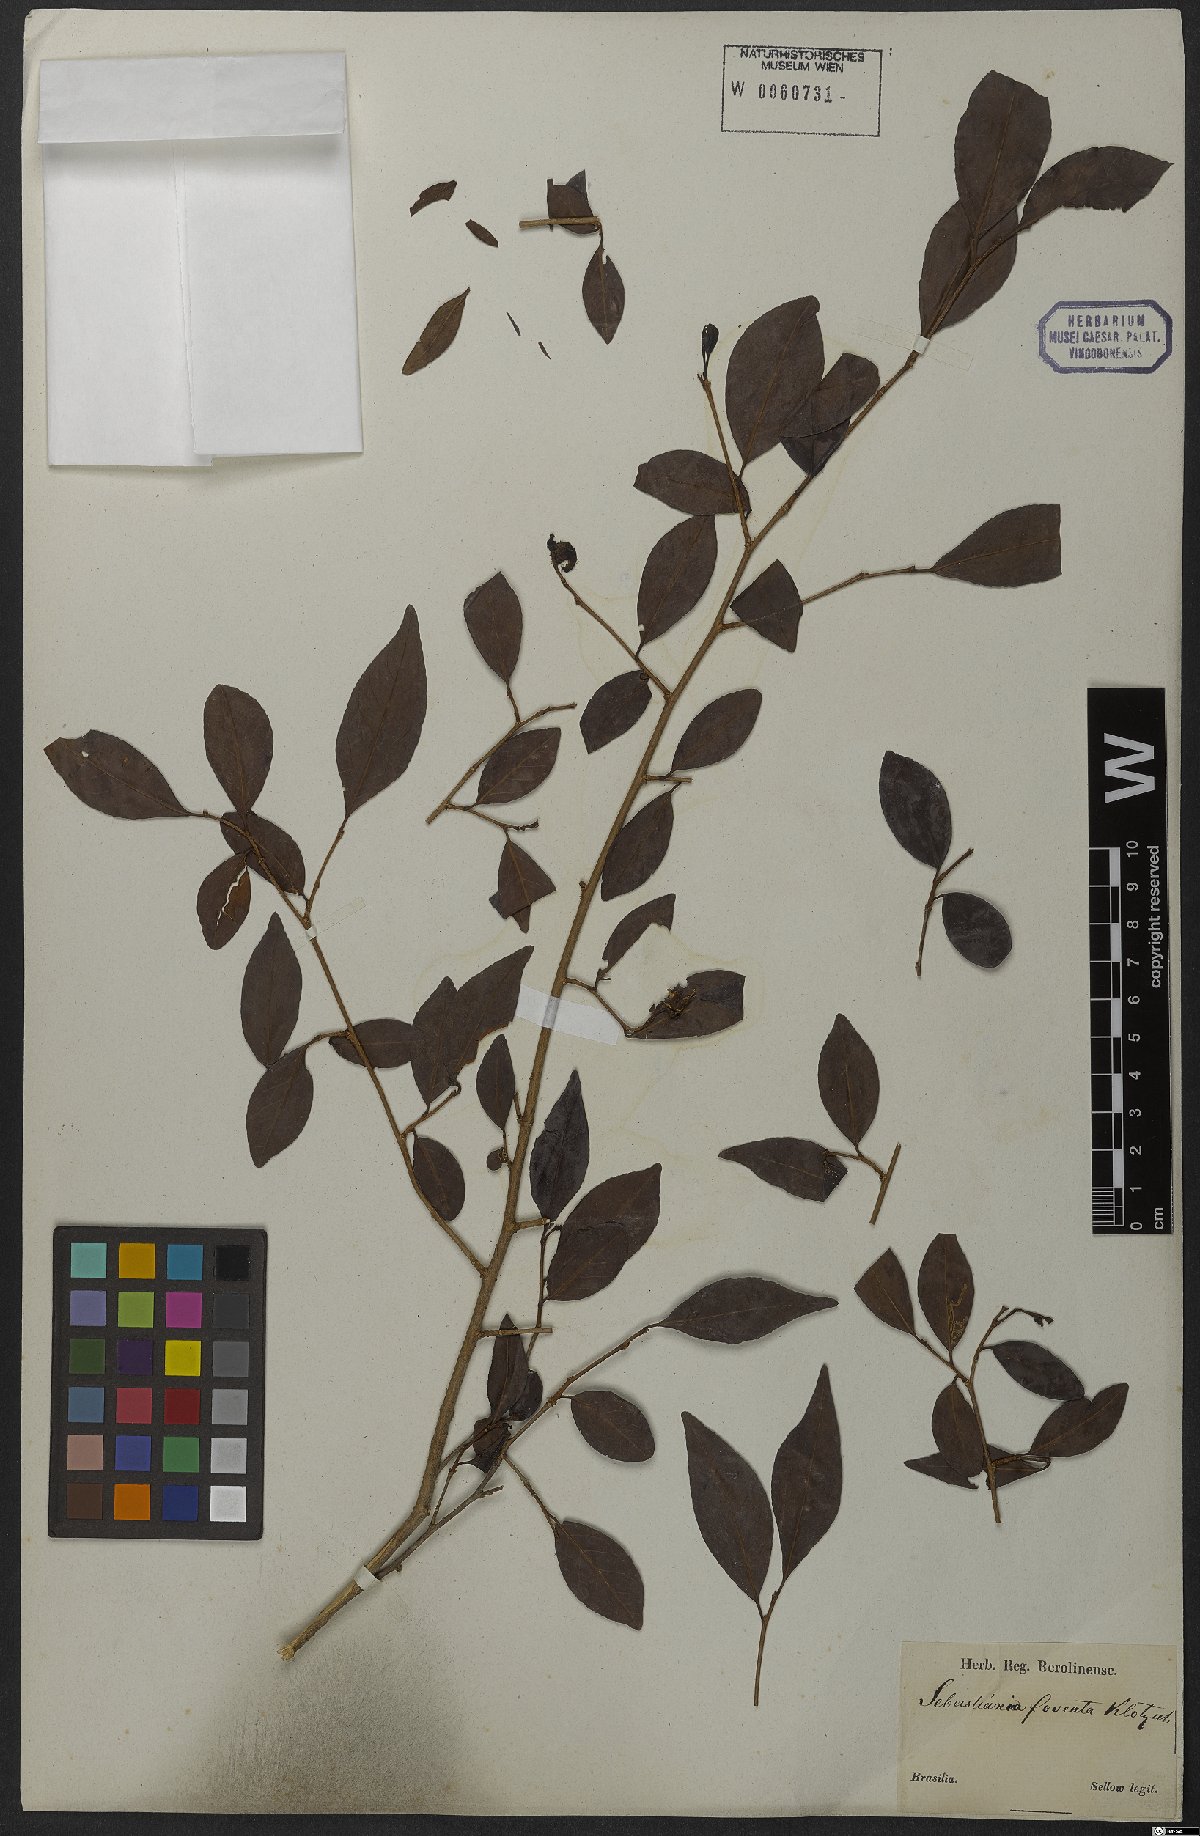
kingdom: Plantae
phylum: Tracheophyta
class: Magnoliopsida
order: Malpighiales
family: Euphorbiaceae
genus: Sebastiania
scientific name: Sebastiania ramosissima
